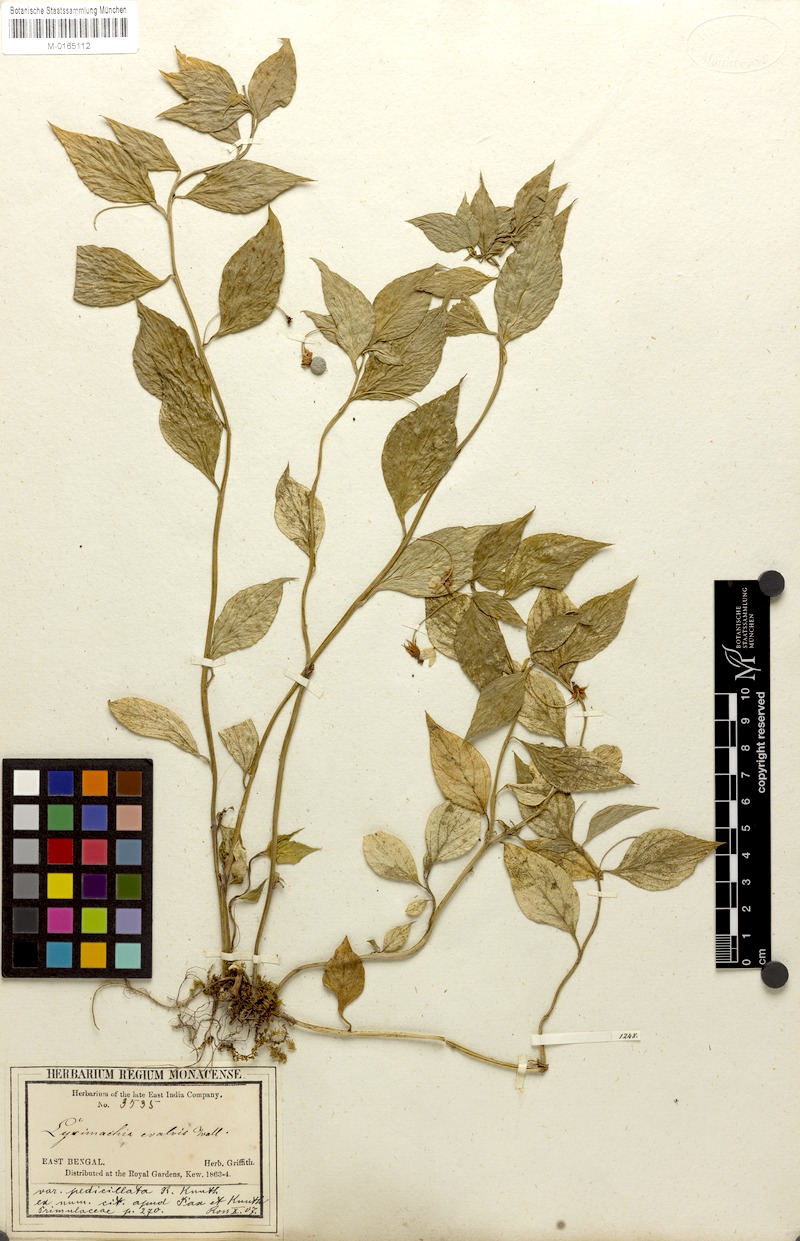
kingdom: Plantae
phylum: Tracheophyta
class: Magnoliopsida
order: Ericales
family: Primulaceae
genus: Lysimachia
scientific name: Lysimachia evalvis
